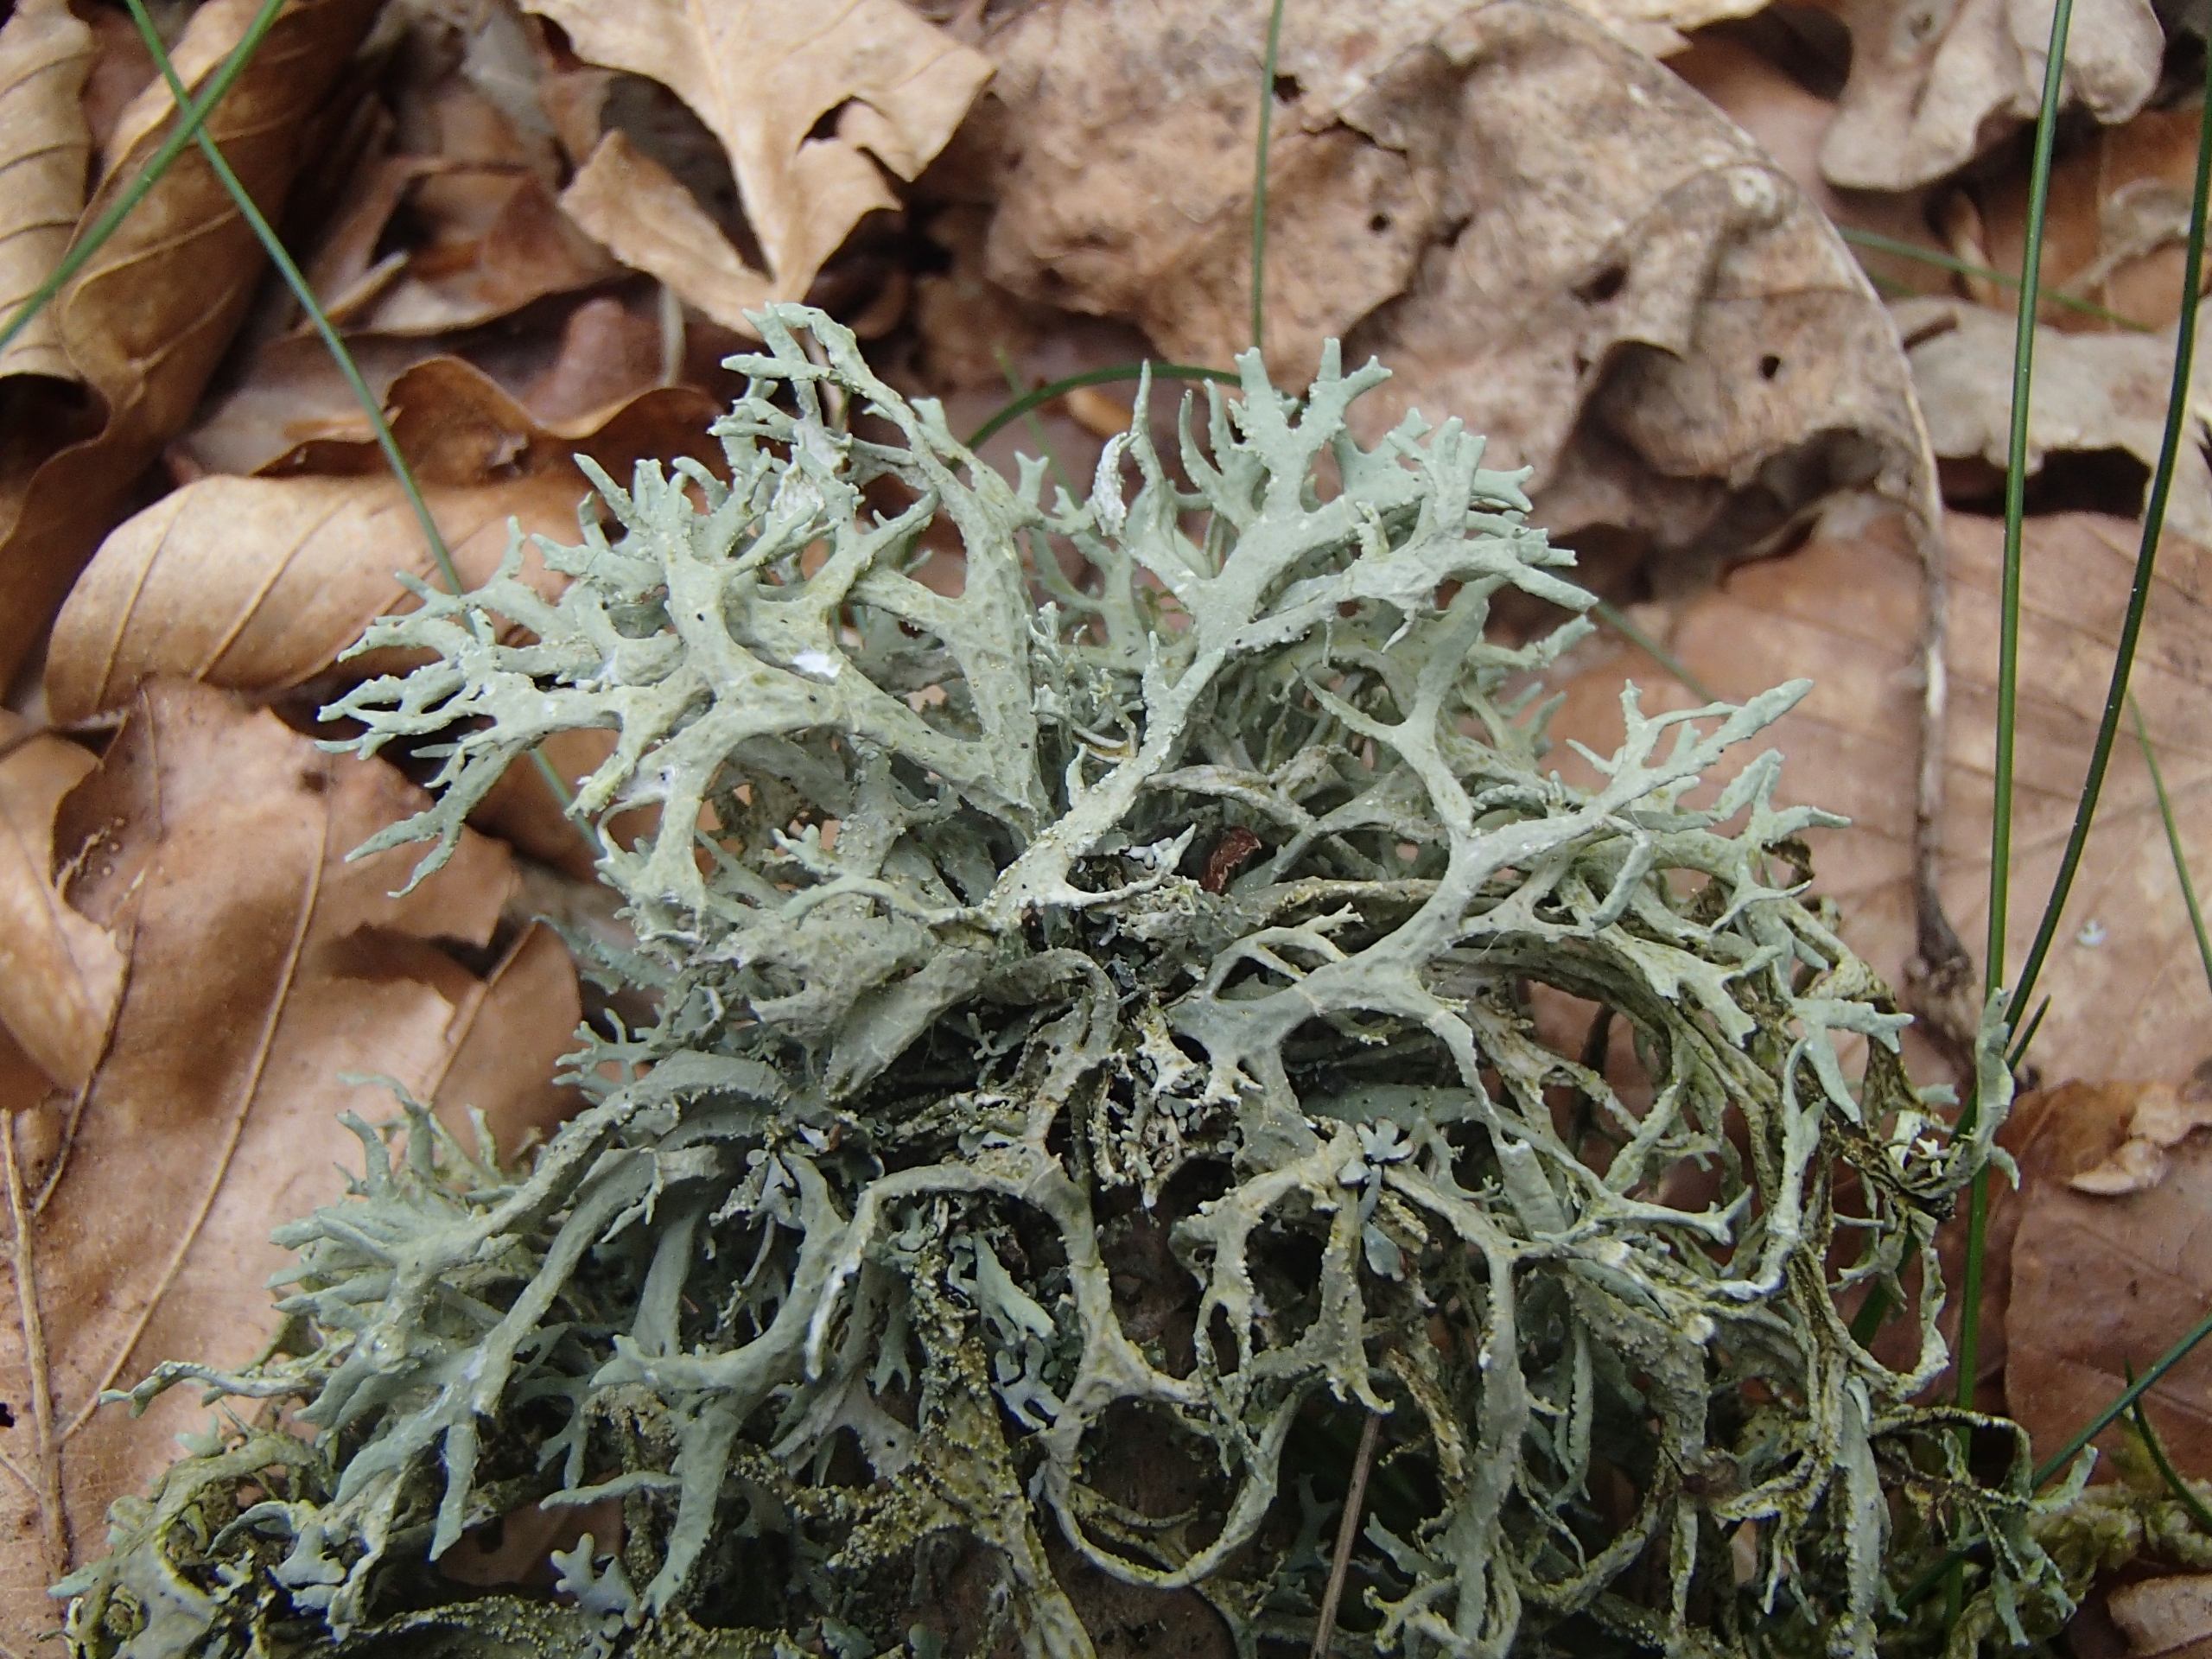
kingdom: Fungi
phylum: Ascomycota
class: Lecanoromycetes
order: Lecanorales
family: Parmeliaceae
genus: Evernia
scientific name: Evernia prunastri
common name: Almindelig slåenlav
